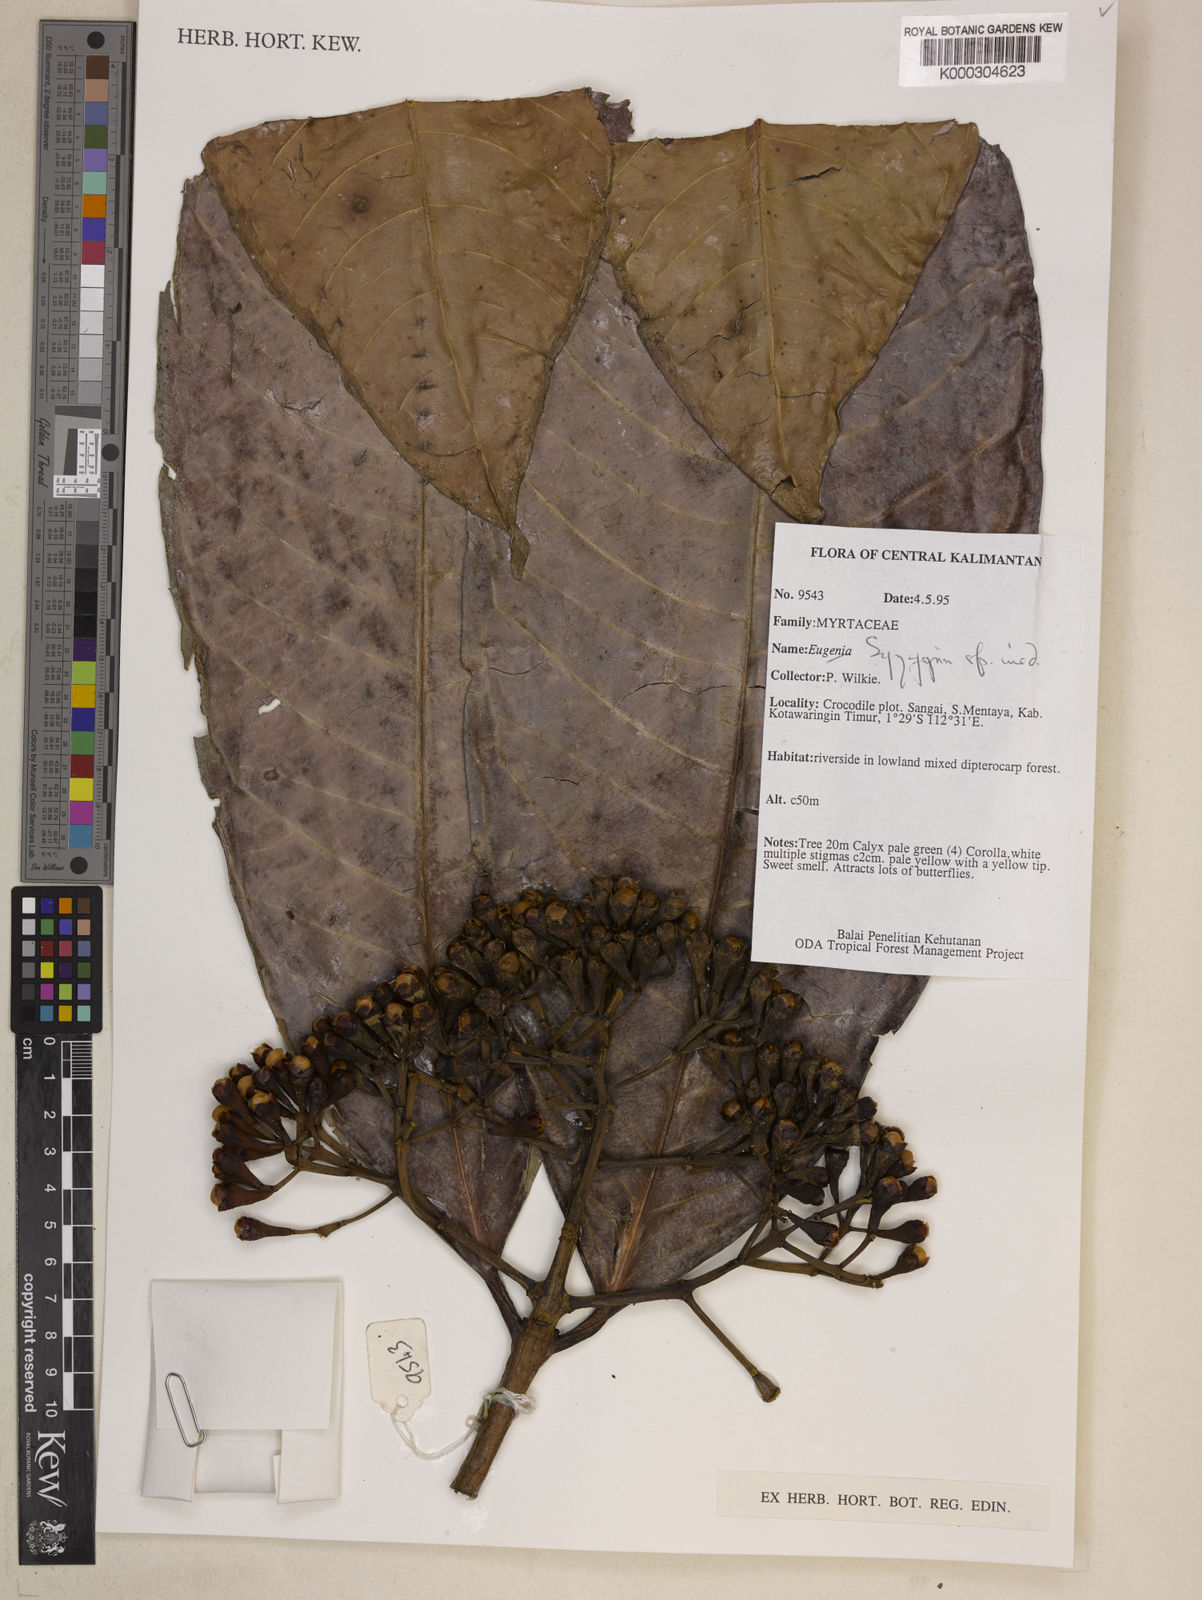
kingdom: Plantae
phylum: Tracheophyta
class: Magnoliopsida
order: Myrtales
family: Myrtaceae
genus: Syzygium
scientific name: Syzygium
